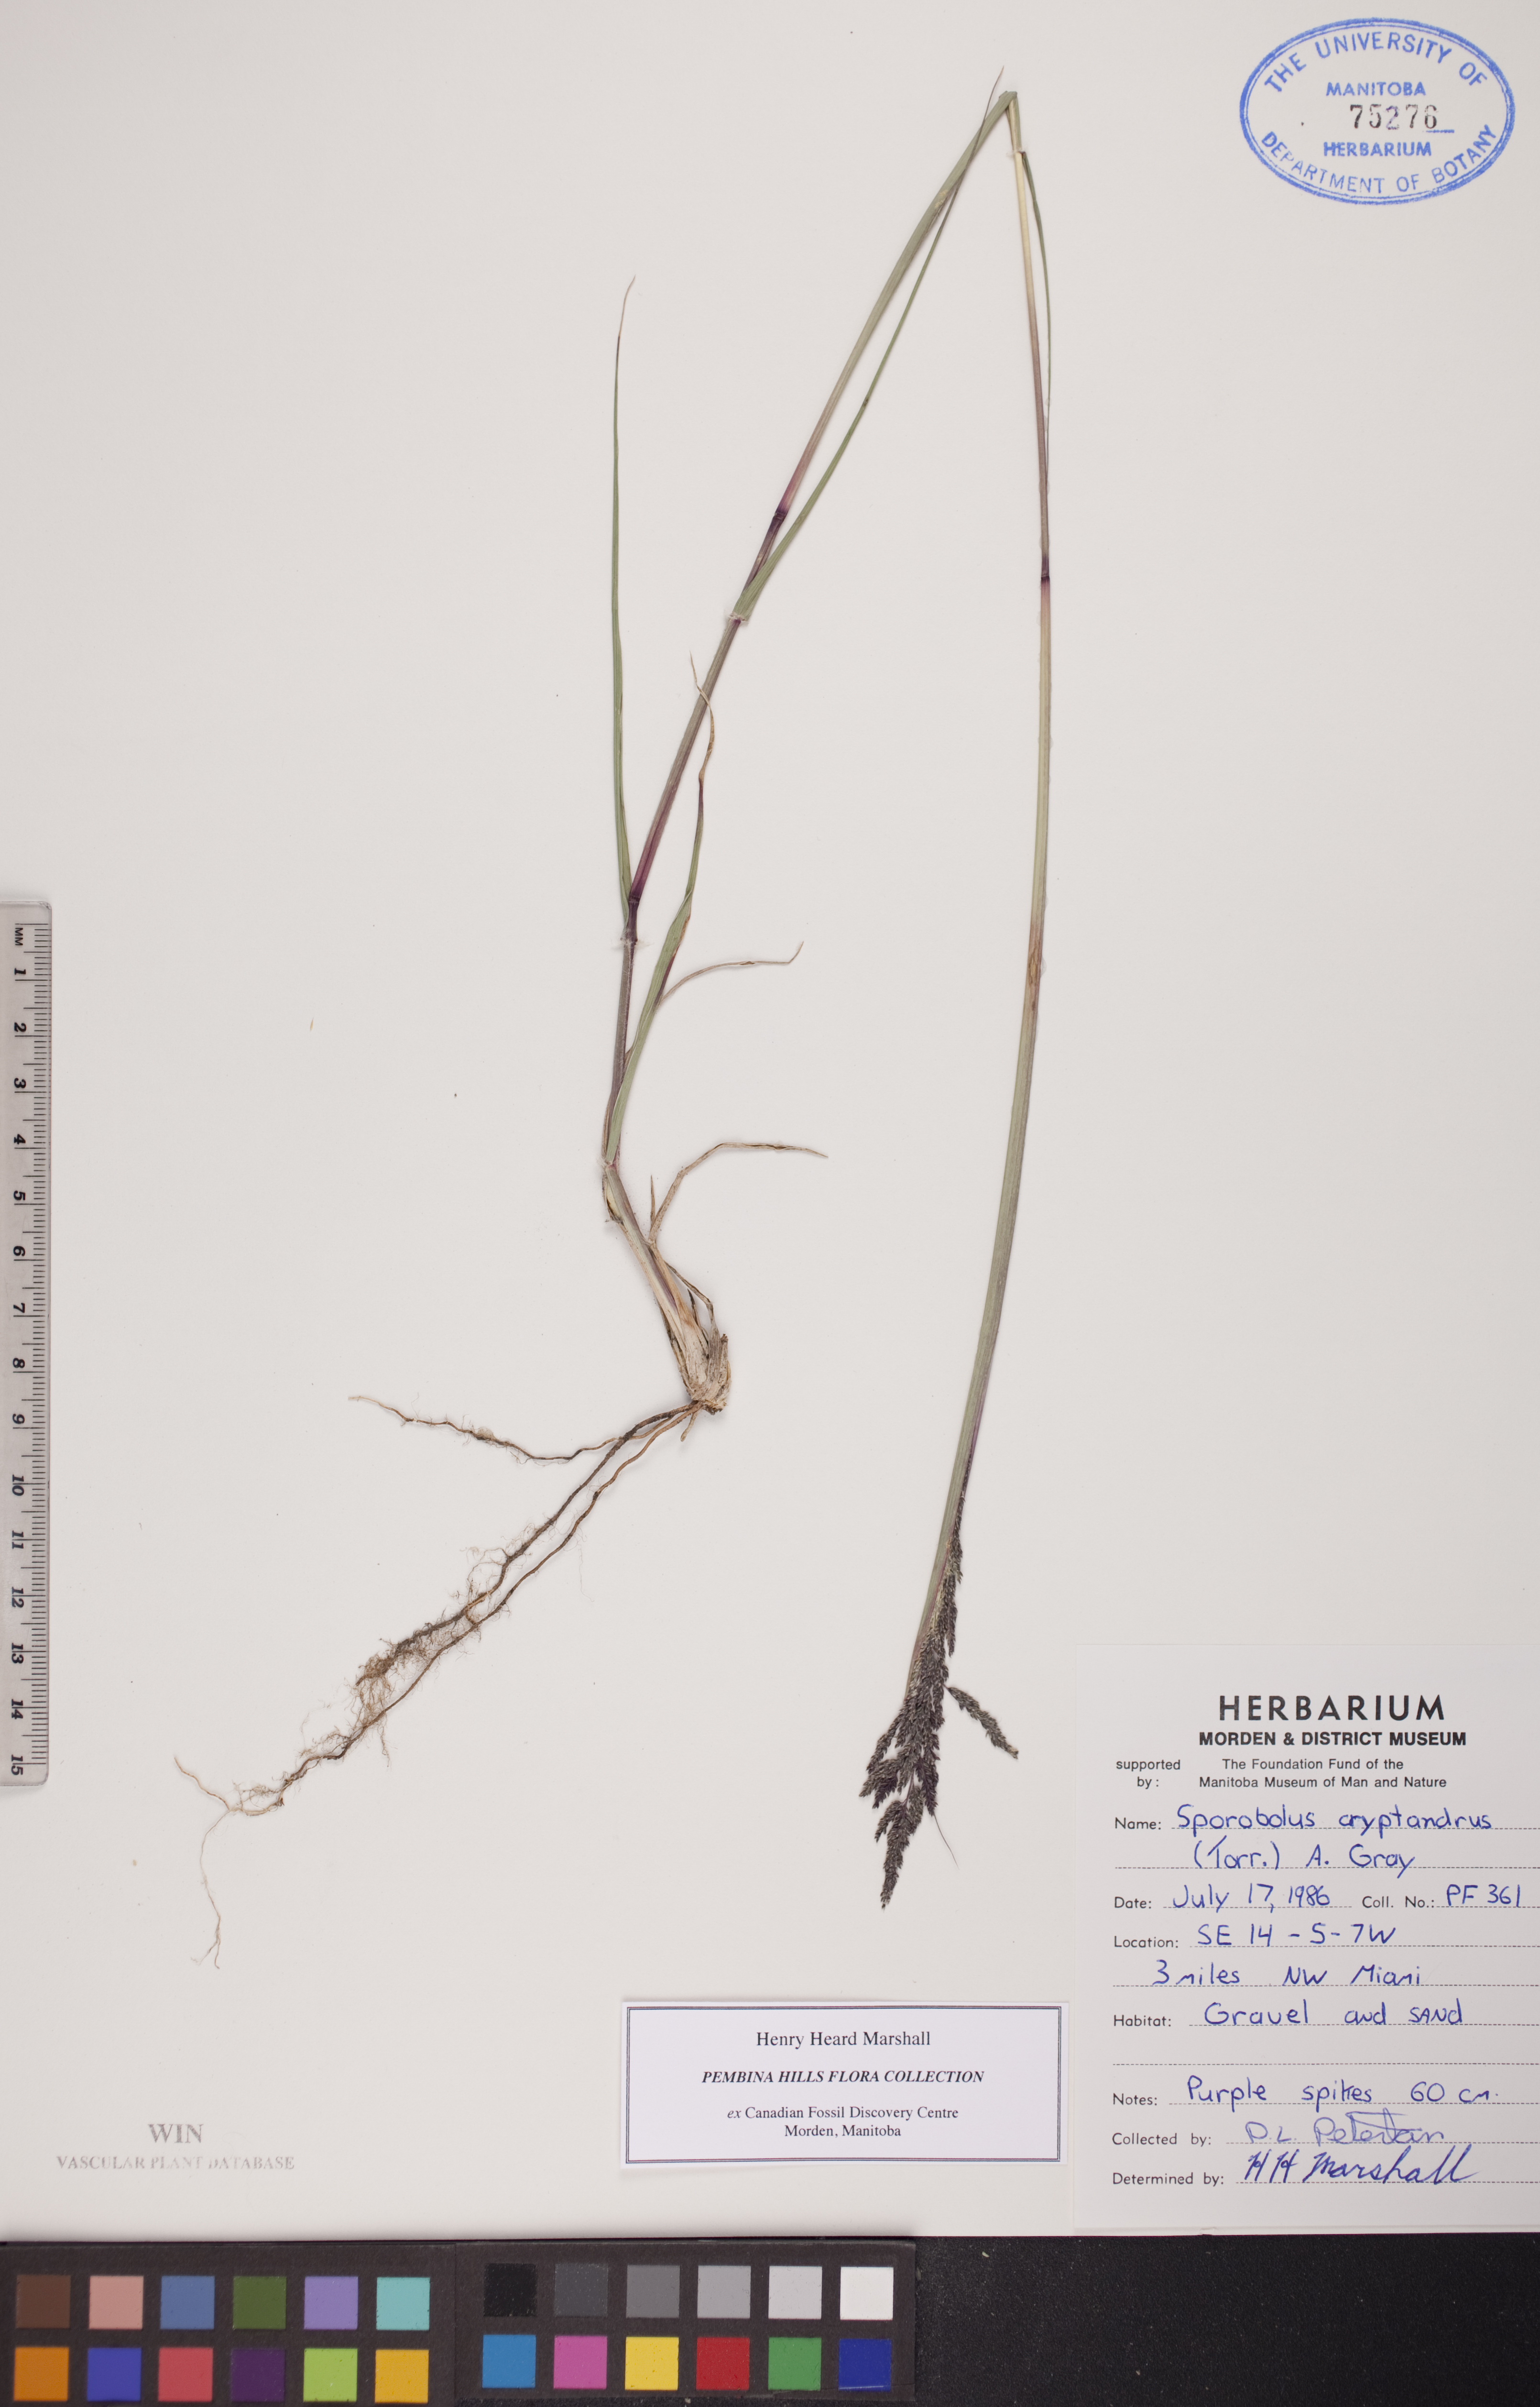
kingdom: Plantae
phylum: Tracheophyta
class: Liliopsida
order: Poales
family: Poaceae
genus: Sporobolus
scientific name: Sporobolus cryptandrus
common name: Sand dropseed
